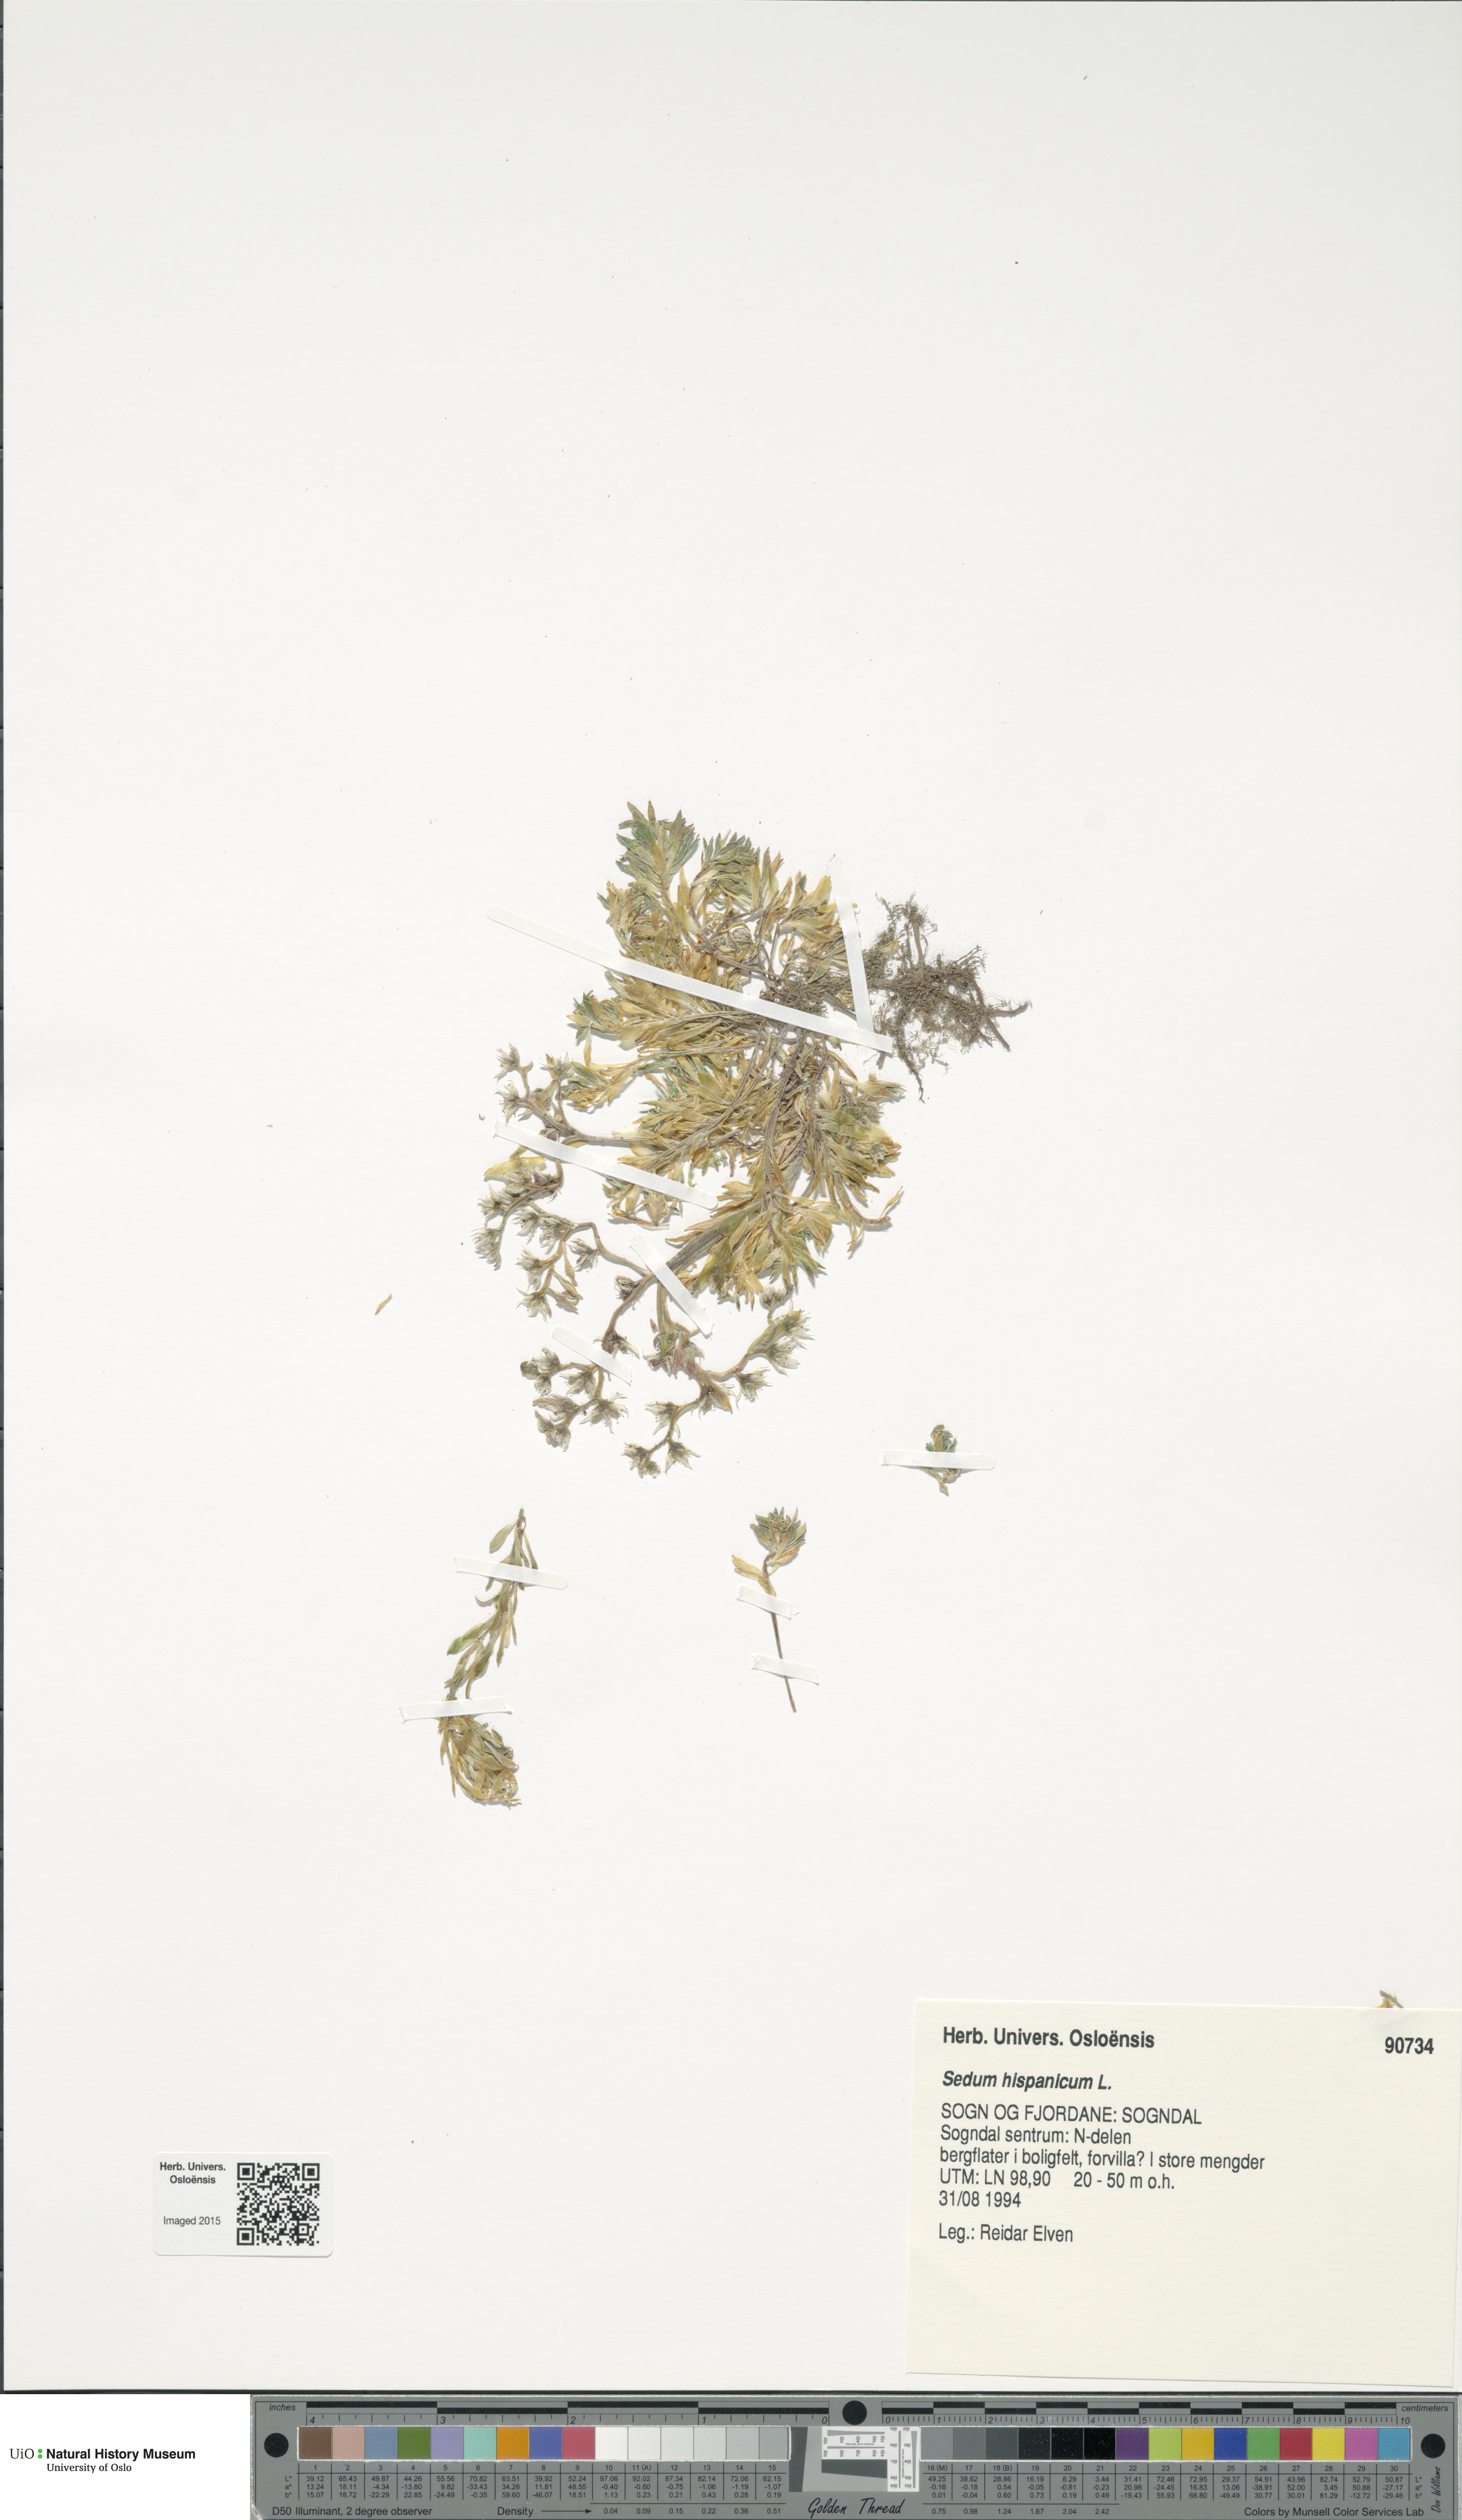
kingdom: Plantae
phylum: Tracheophyta
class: Magnoliopsida
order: Saxifragales
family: Crassulaceae
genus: Sedum
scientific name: Sedum hispanicum
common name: Spanish stonecrop
